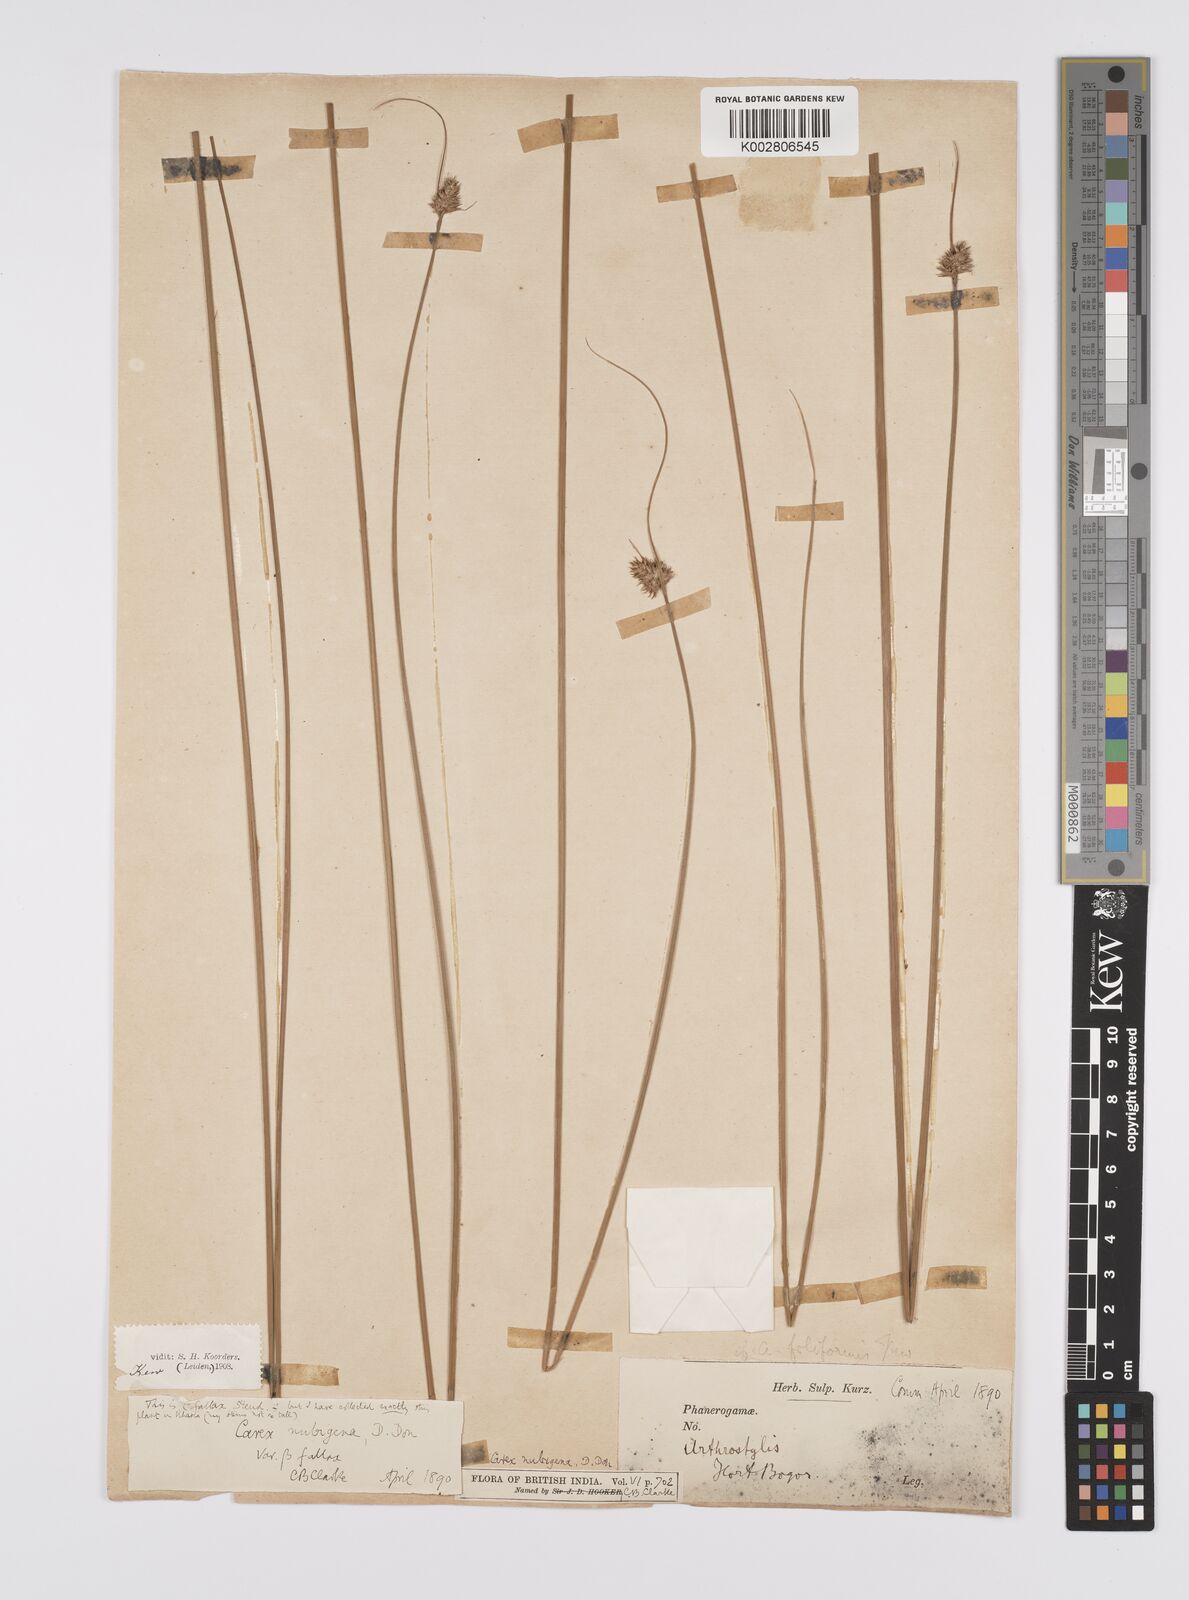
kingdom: Plantae
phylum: Tracheophyta
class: Liliopsida
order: Poales
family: Cyperaceae
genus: Carex
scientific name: Carex
